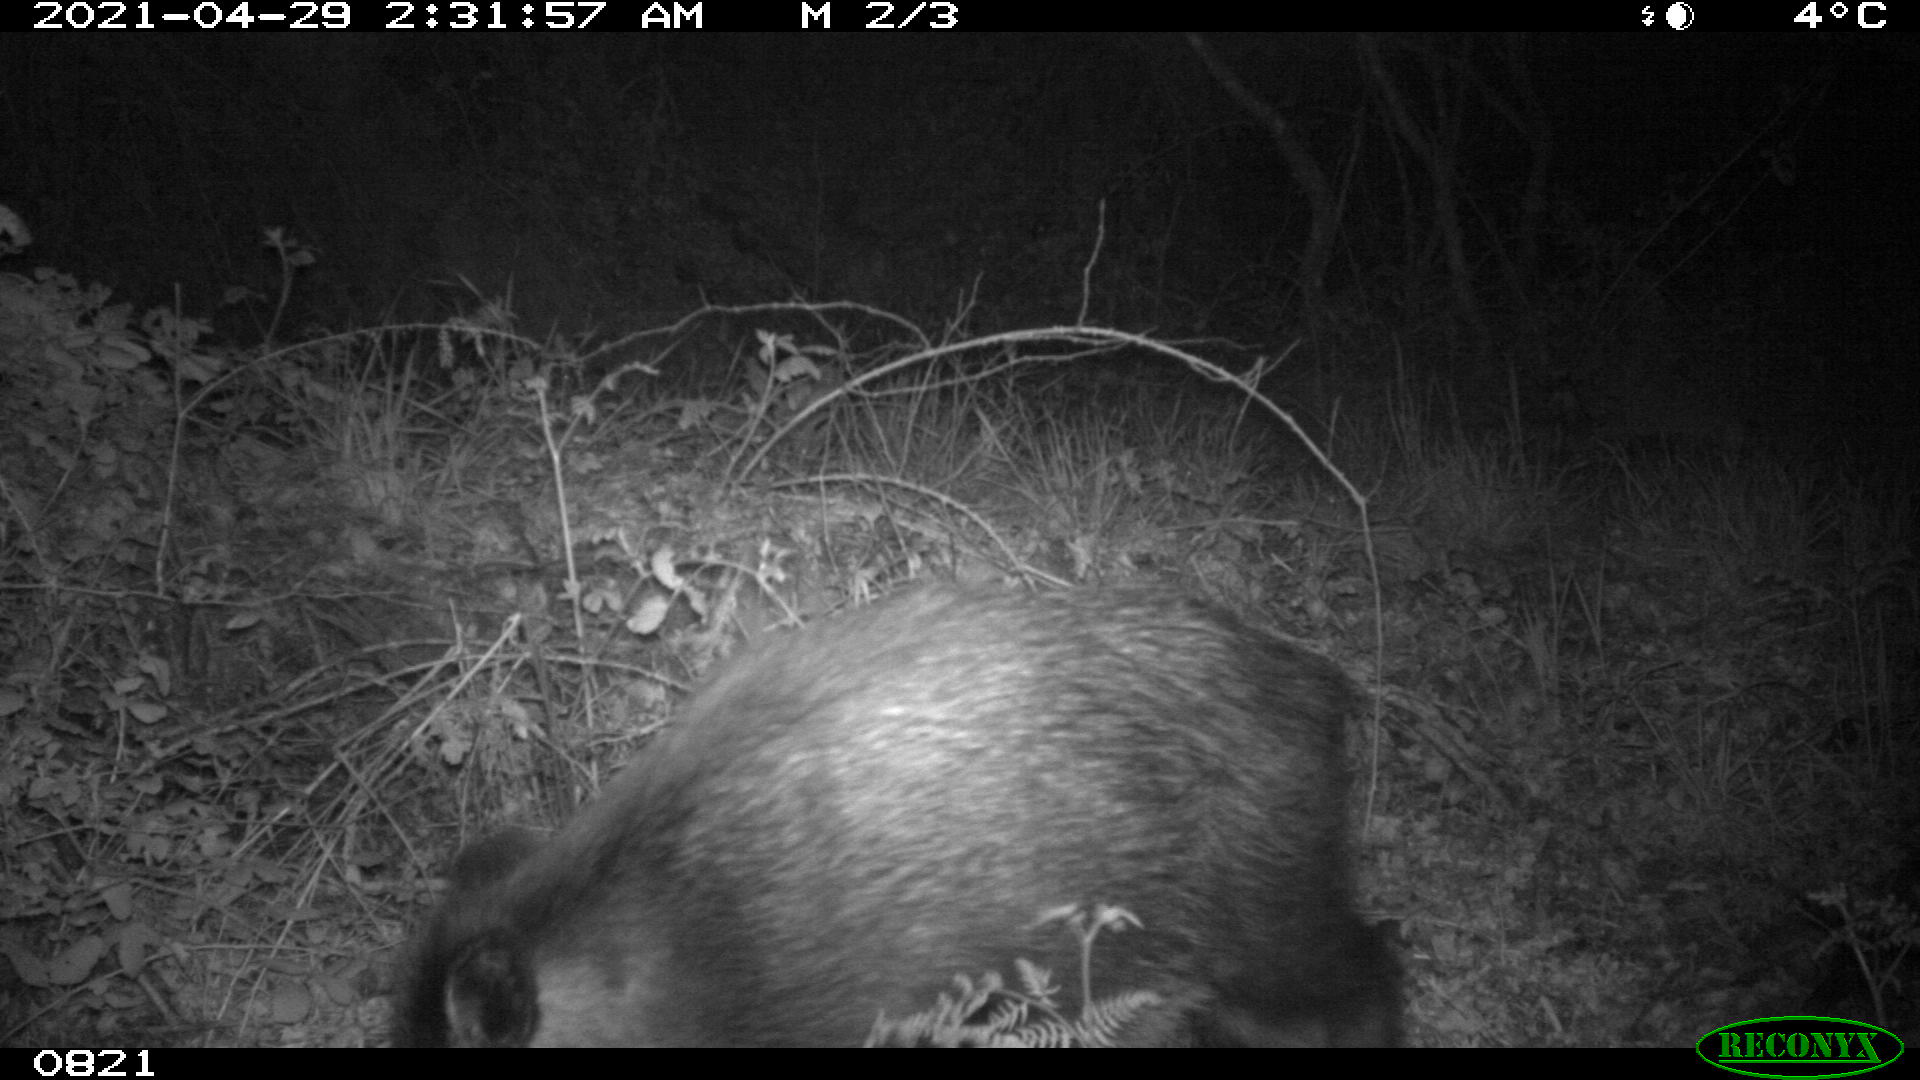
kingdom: Animalia
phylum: Chordata
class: Mammalia
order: Artiodactyla
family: Suidae
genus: Sus
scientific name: Sus scrofa
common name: Wild boar
